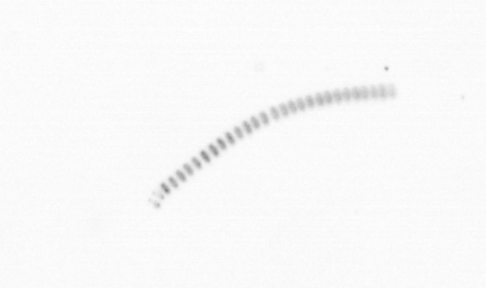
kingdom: Chromista
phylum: Ochrophyta
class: Bacillariophyceae
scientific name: Bacillariophyceae
